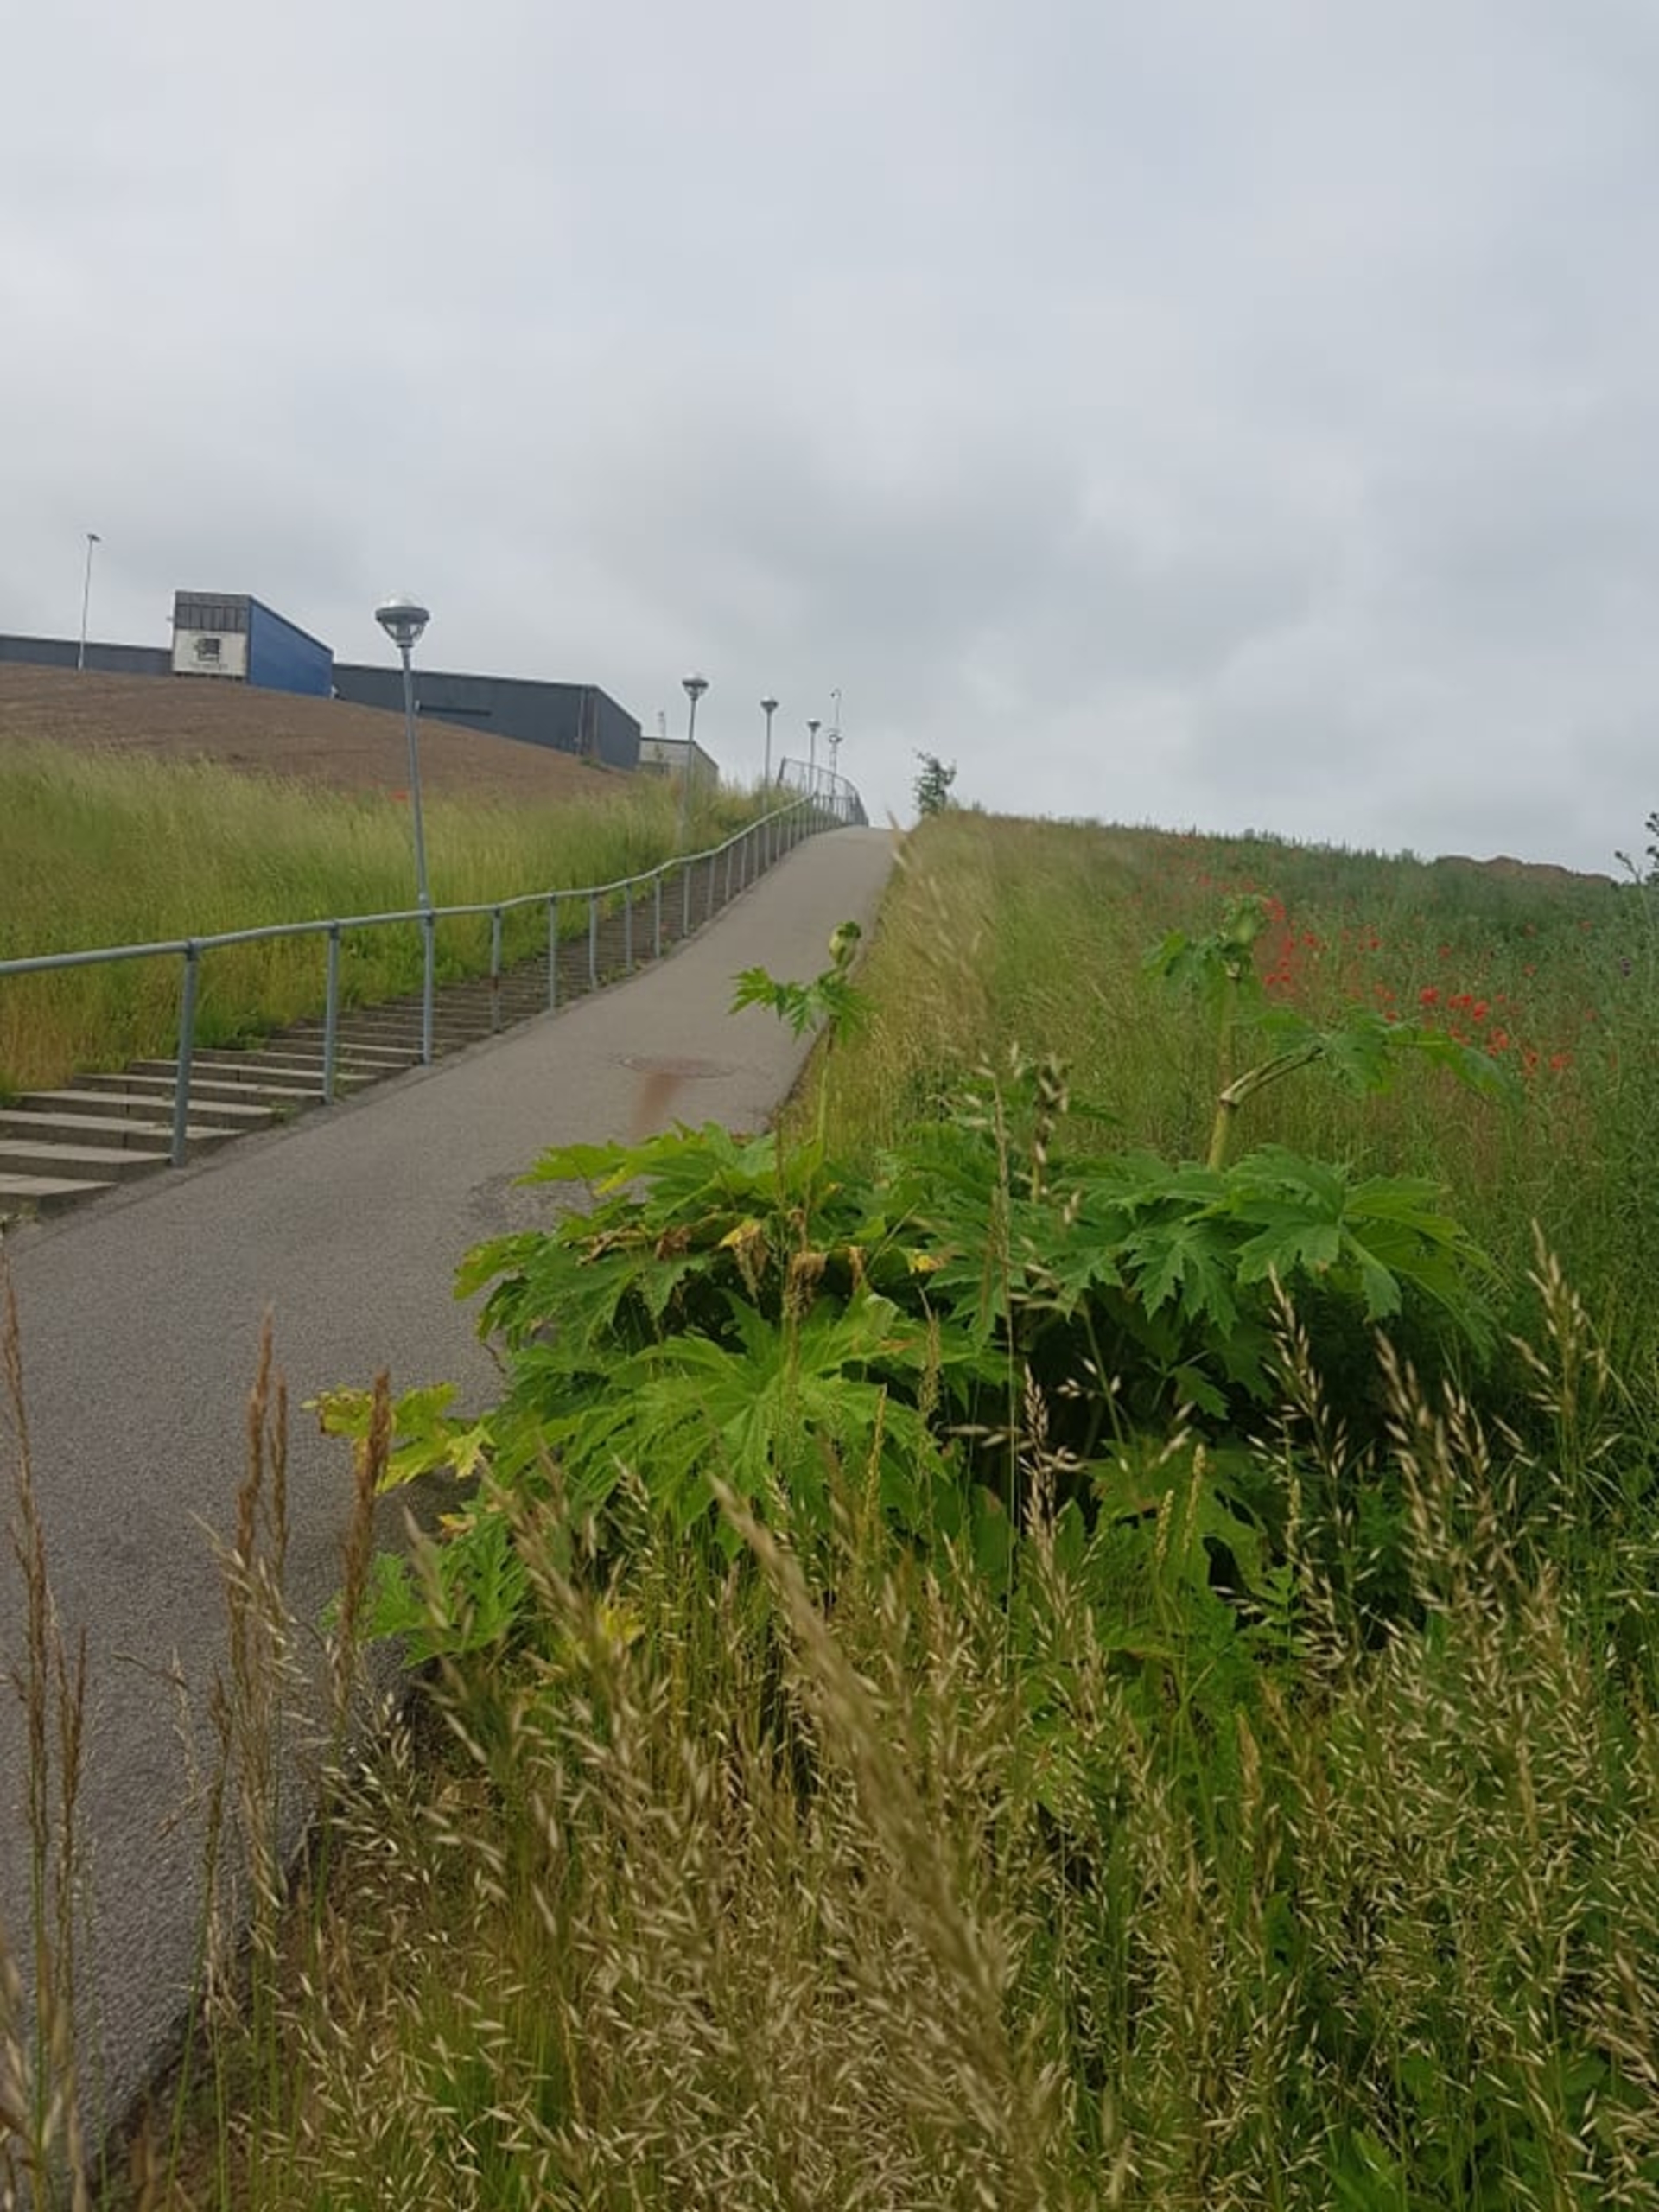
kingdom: Plantae
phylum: Tracheophyta
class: Magnoliopsida
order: Apiales
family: Apiaceae
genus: Heracleum
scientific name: Heracleum mantegazzianum
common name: Kæmpe-bjørneklo
